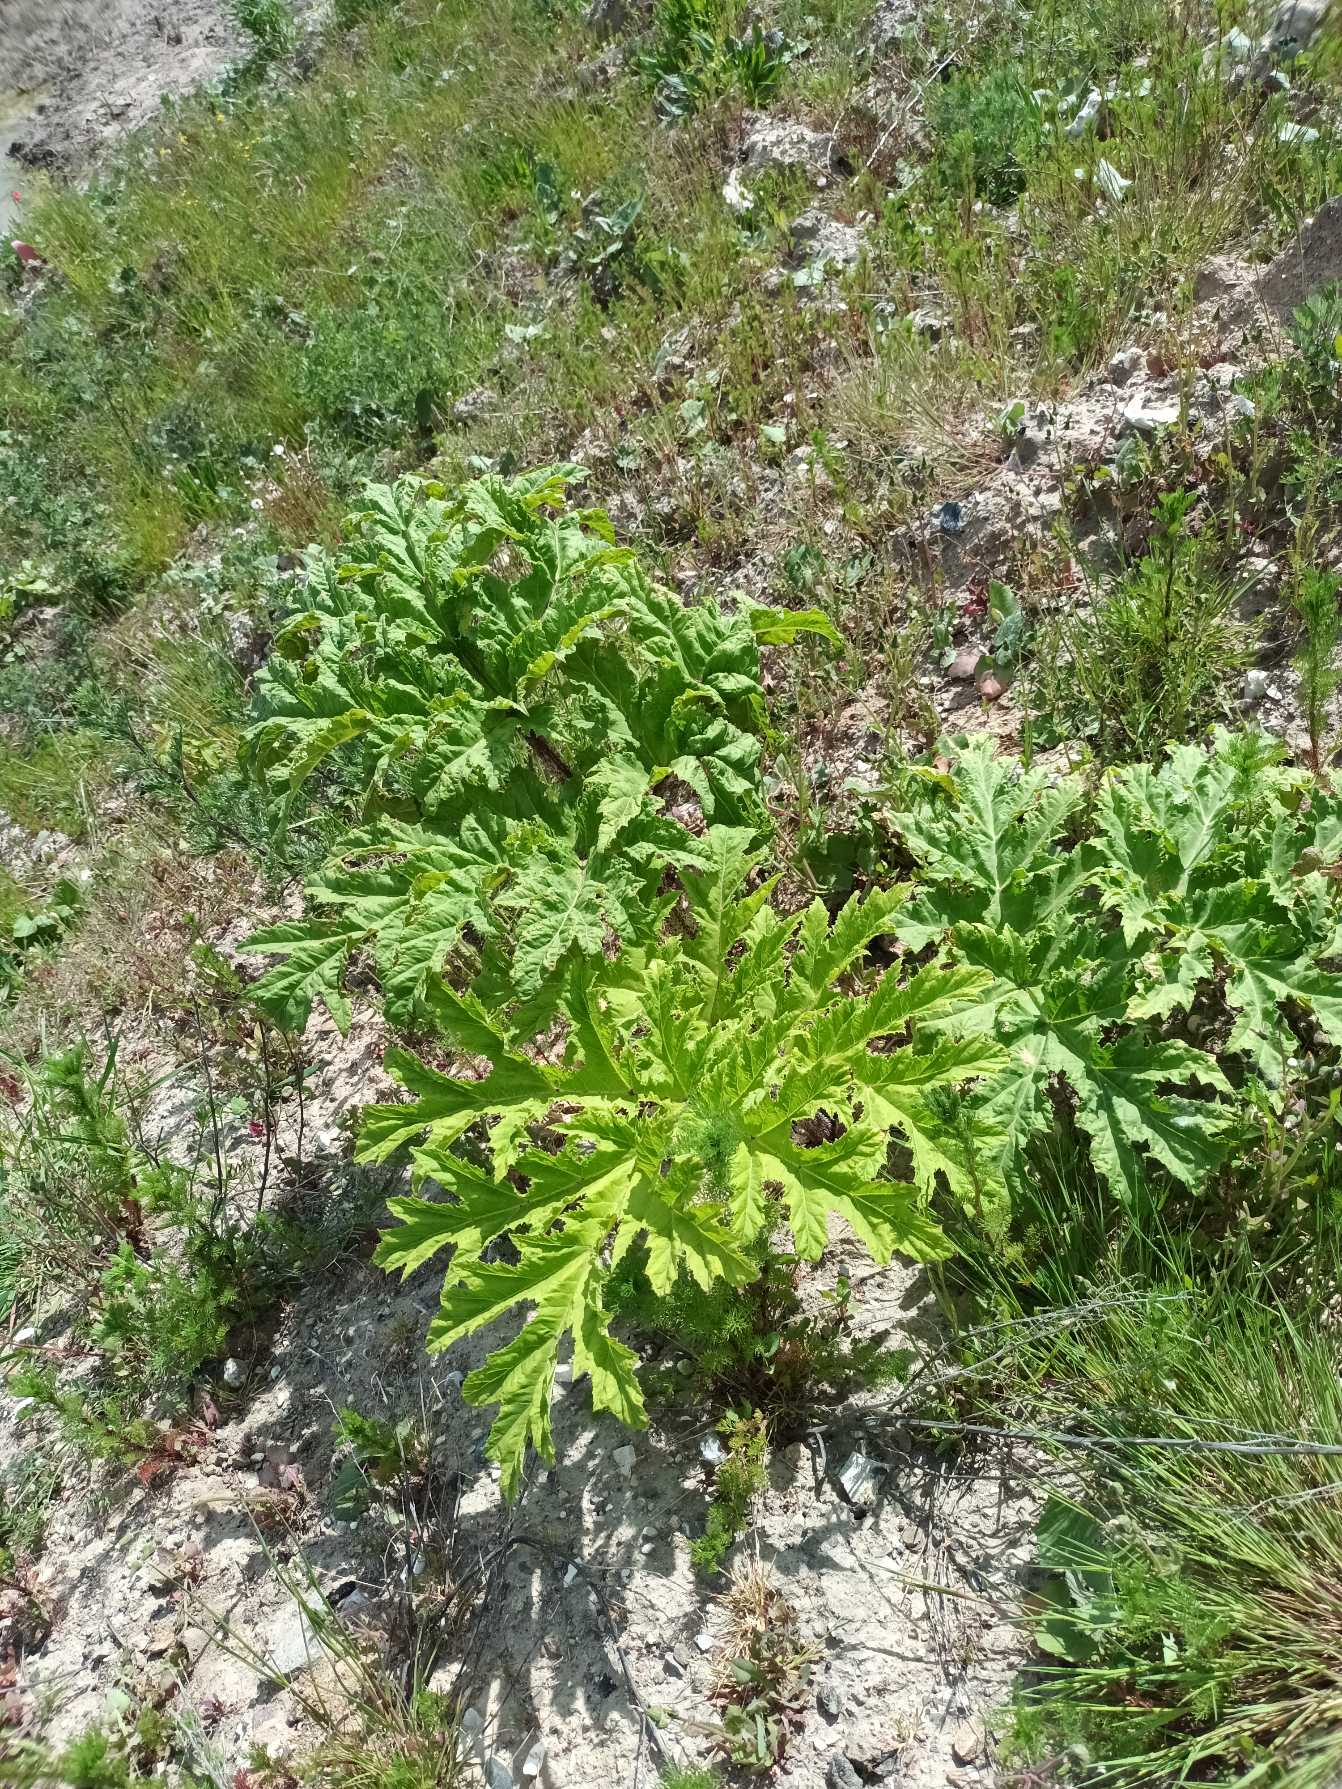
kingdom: Plantae
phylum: Tracheophyta
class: Magnoliopsida
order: Apiales
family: Apiaceae
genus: Heracleum
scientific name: Heracleum mantegazzianum
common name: Kæmpe-bjørneklo
